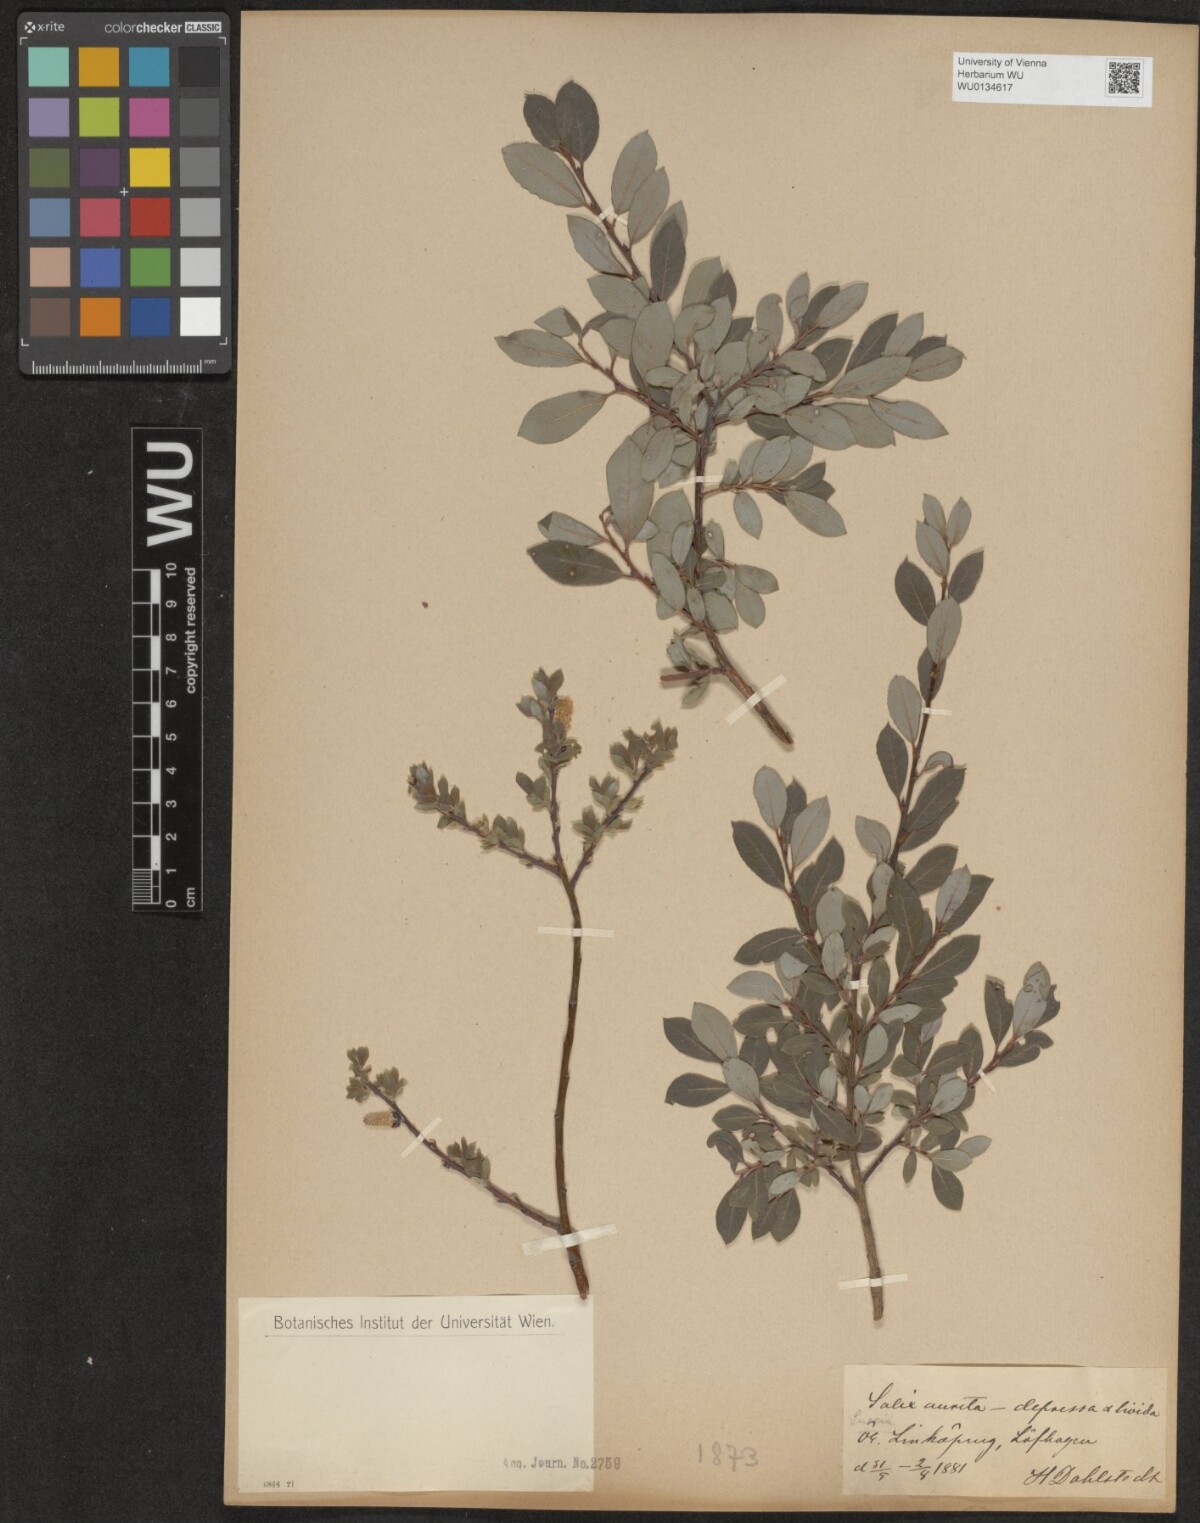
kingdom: Plantae
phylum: Tracheophyta
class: Magnoliopsida
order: Malpighiales
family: Salicaceae
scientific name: Salicaceae
